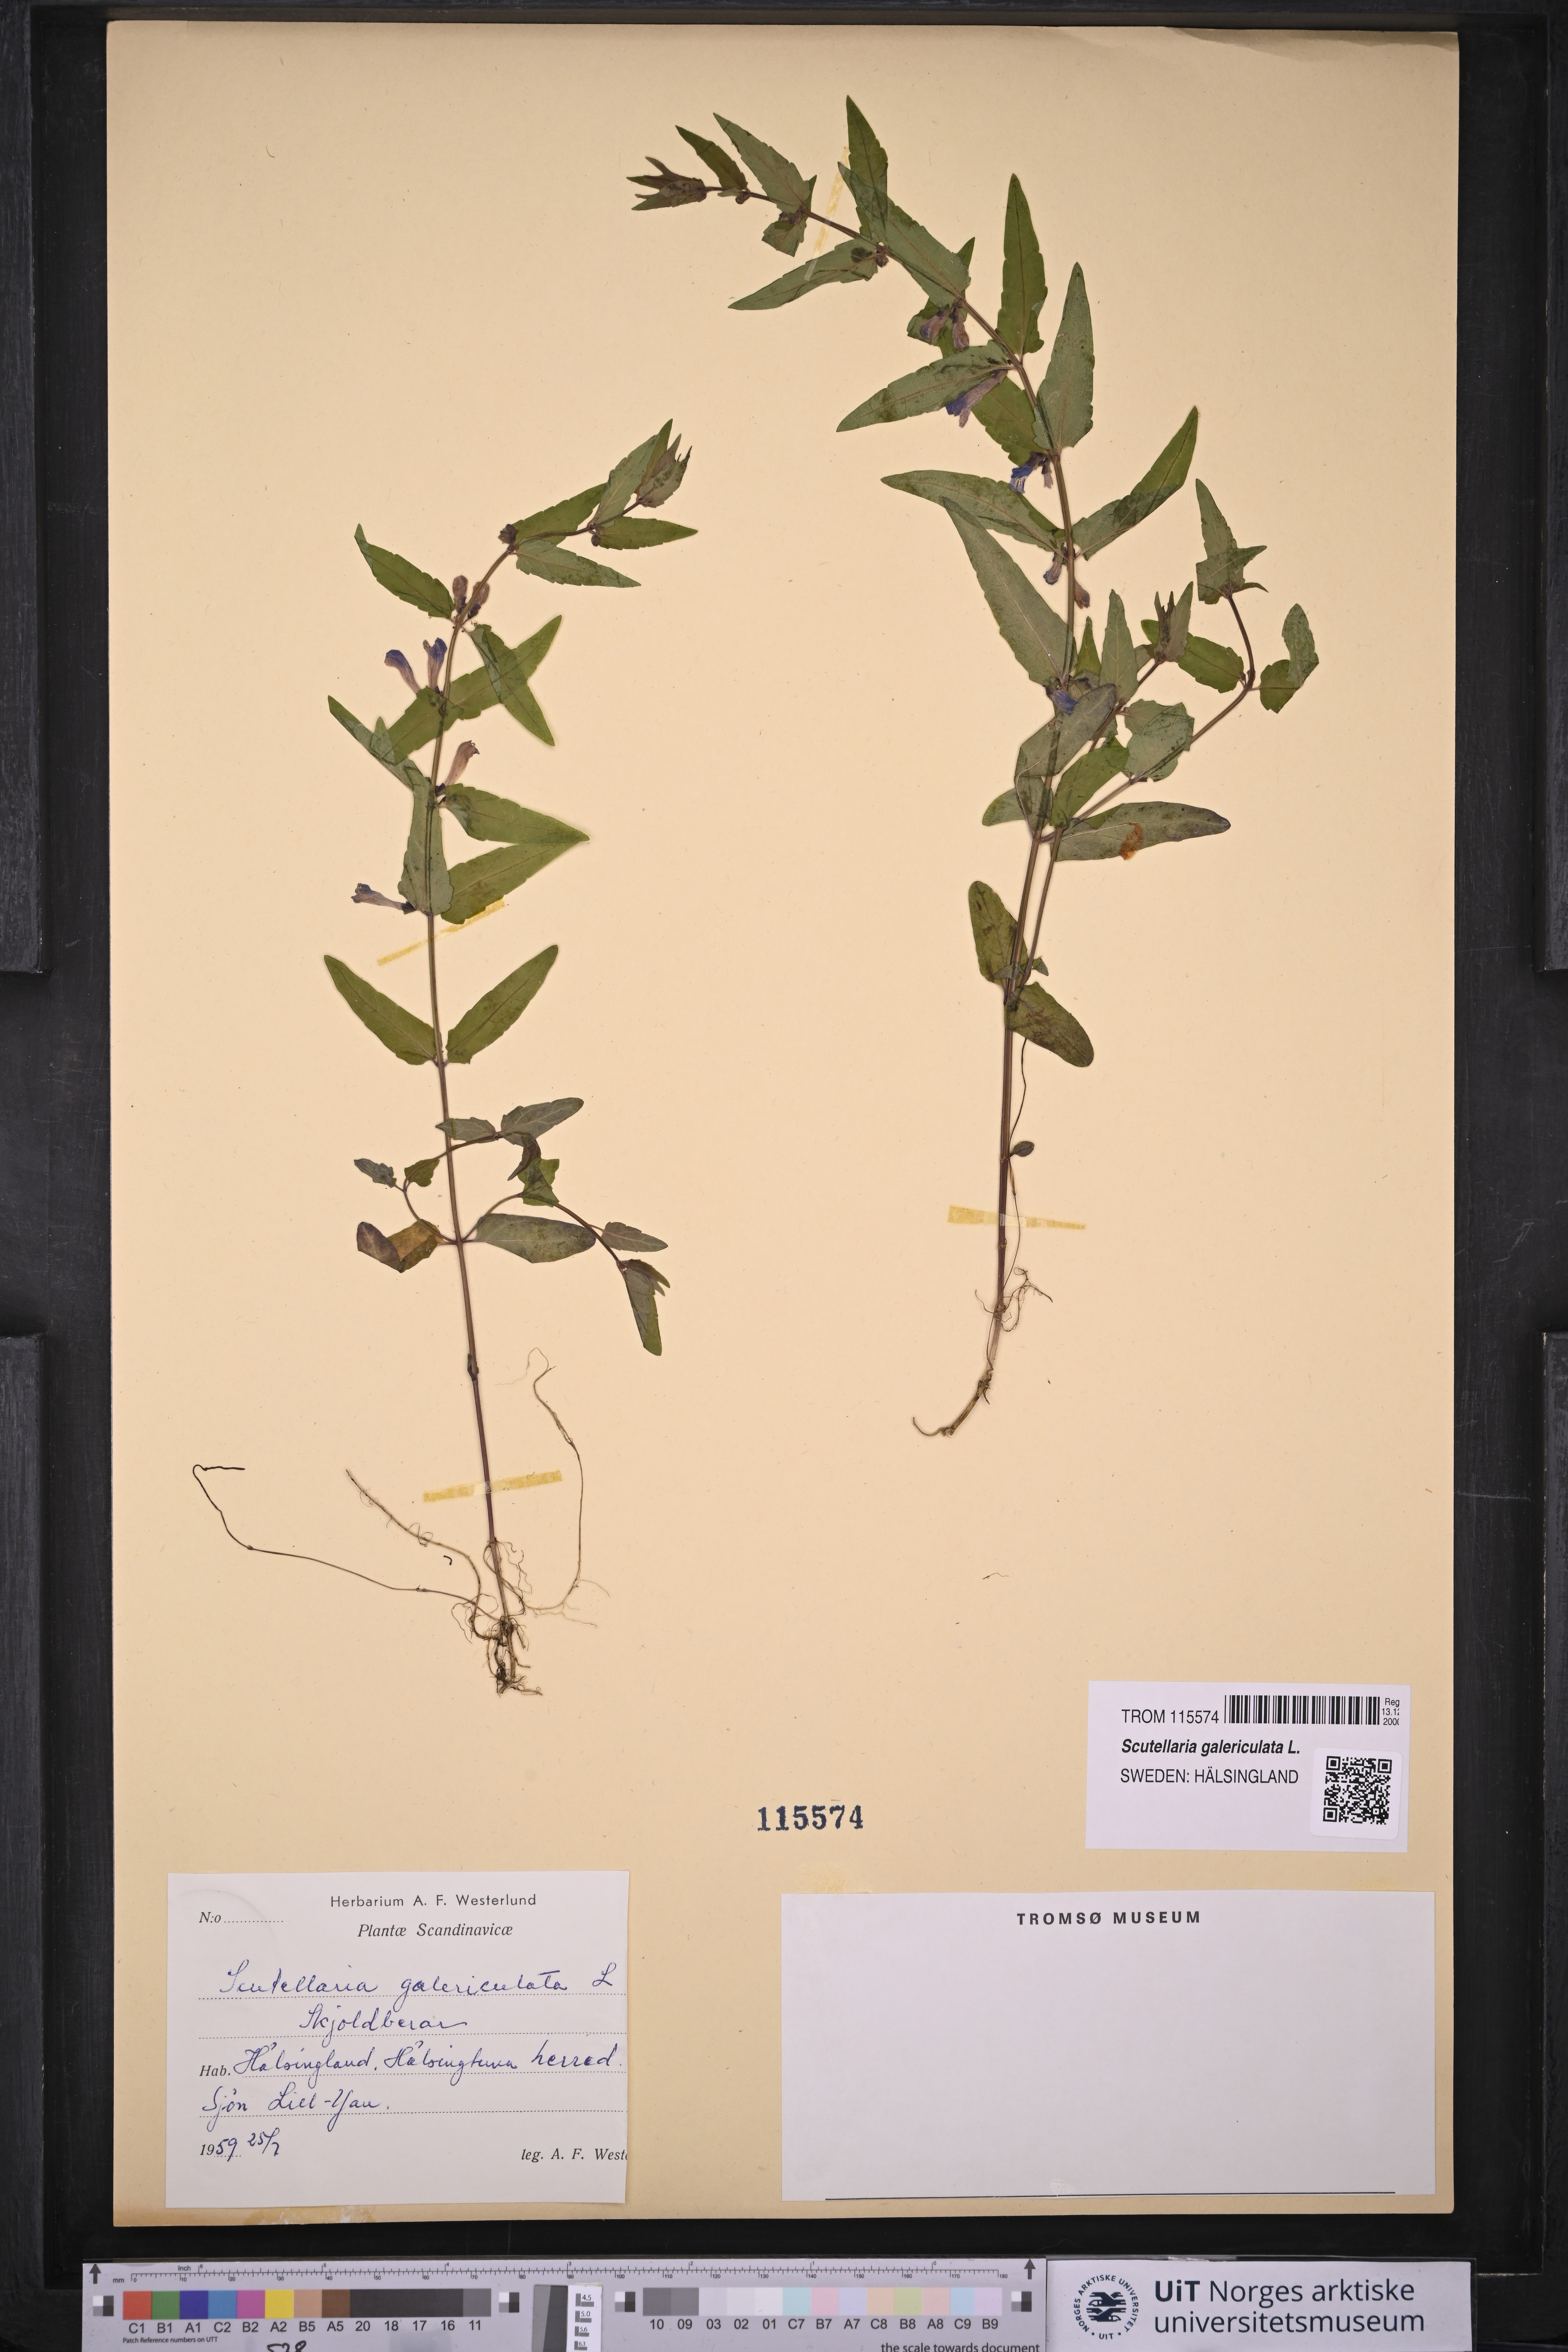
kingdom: Plantae
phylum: Tracheophyta
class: Magnoliopsida
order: Lamiales
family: Lamiaceae
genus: Scutellaria
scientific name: Scutellaria galericulata
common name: Skullcap
